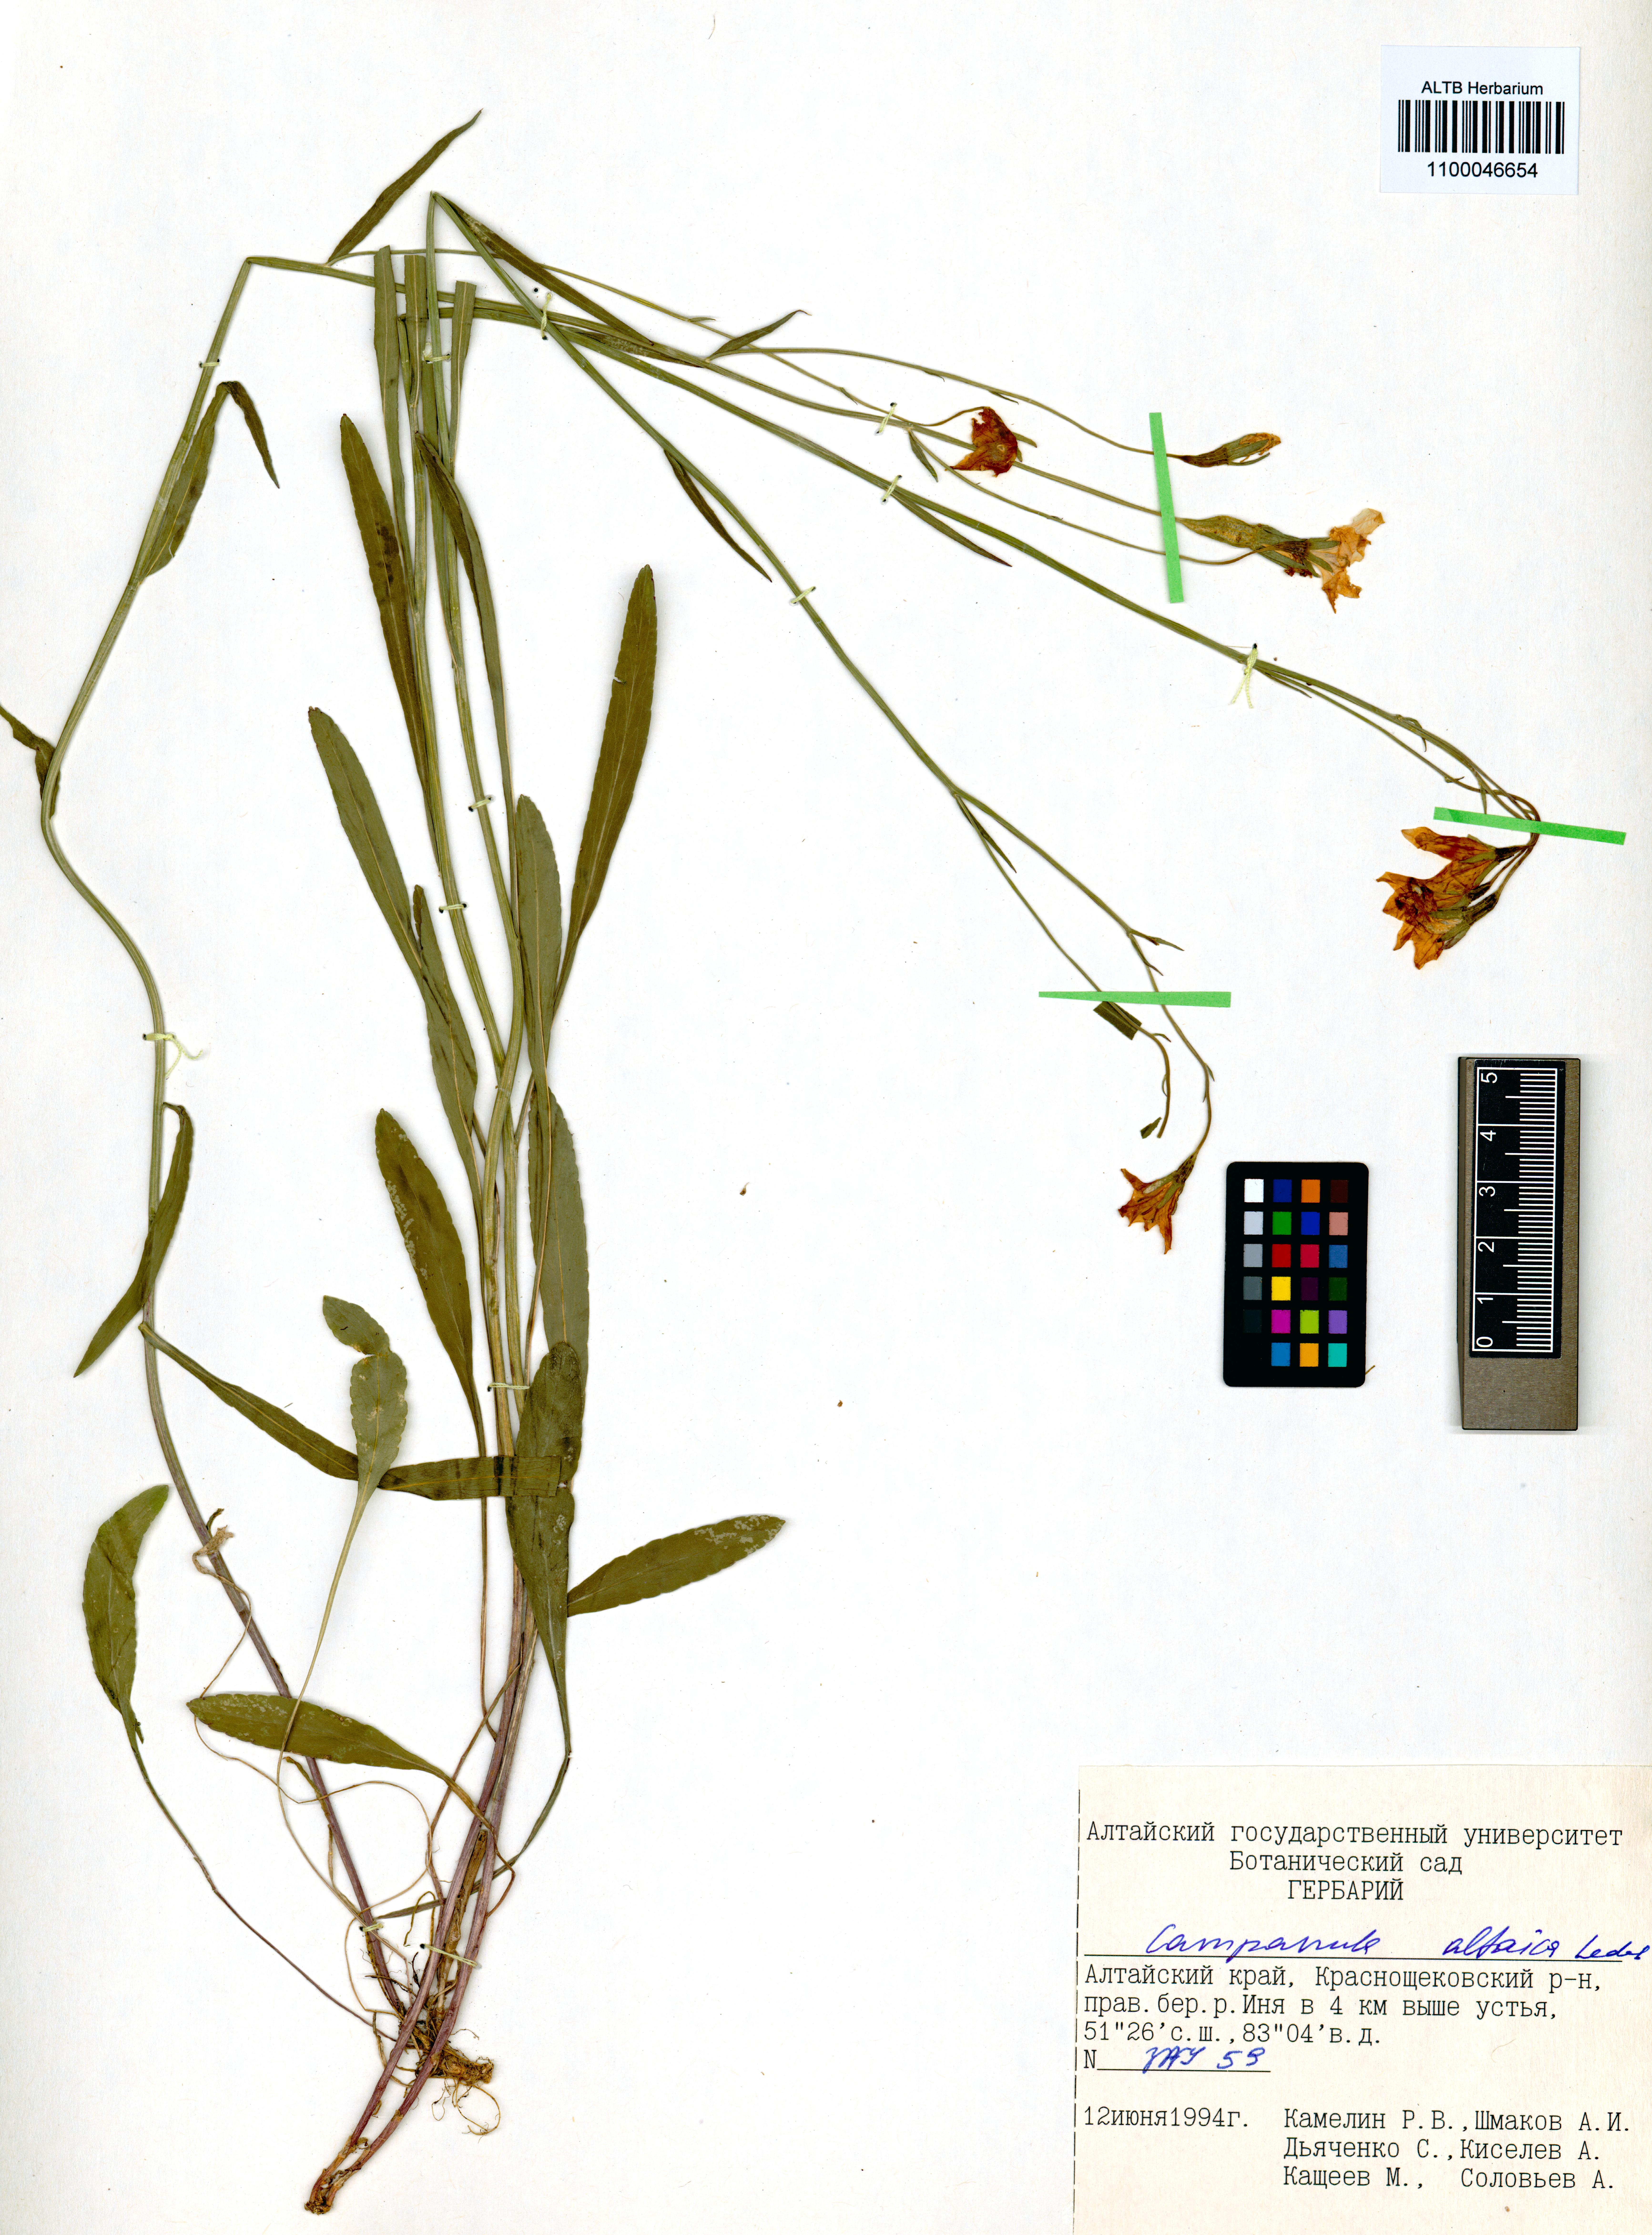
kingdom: Plantae
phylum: Tracheophyta
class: Magnoliopsida
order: Asterales
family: Campanulaceae
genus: Campanula
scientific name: Campanula stevenii
